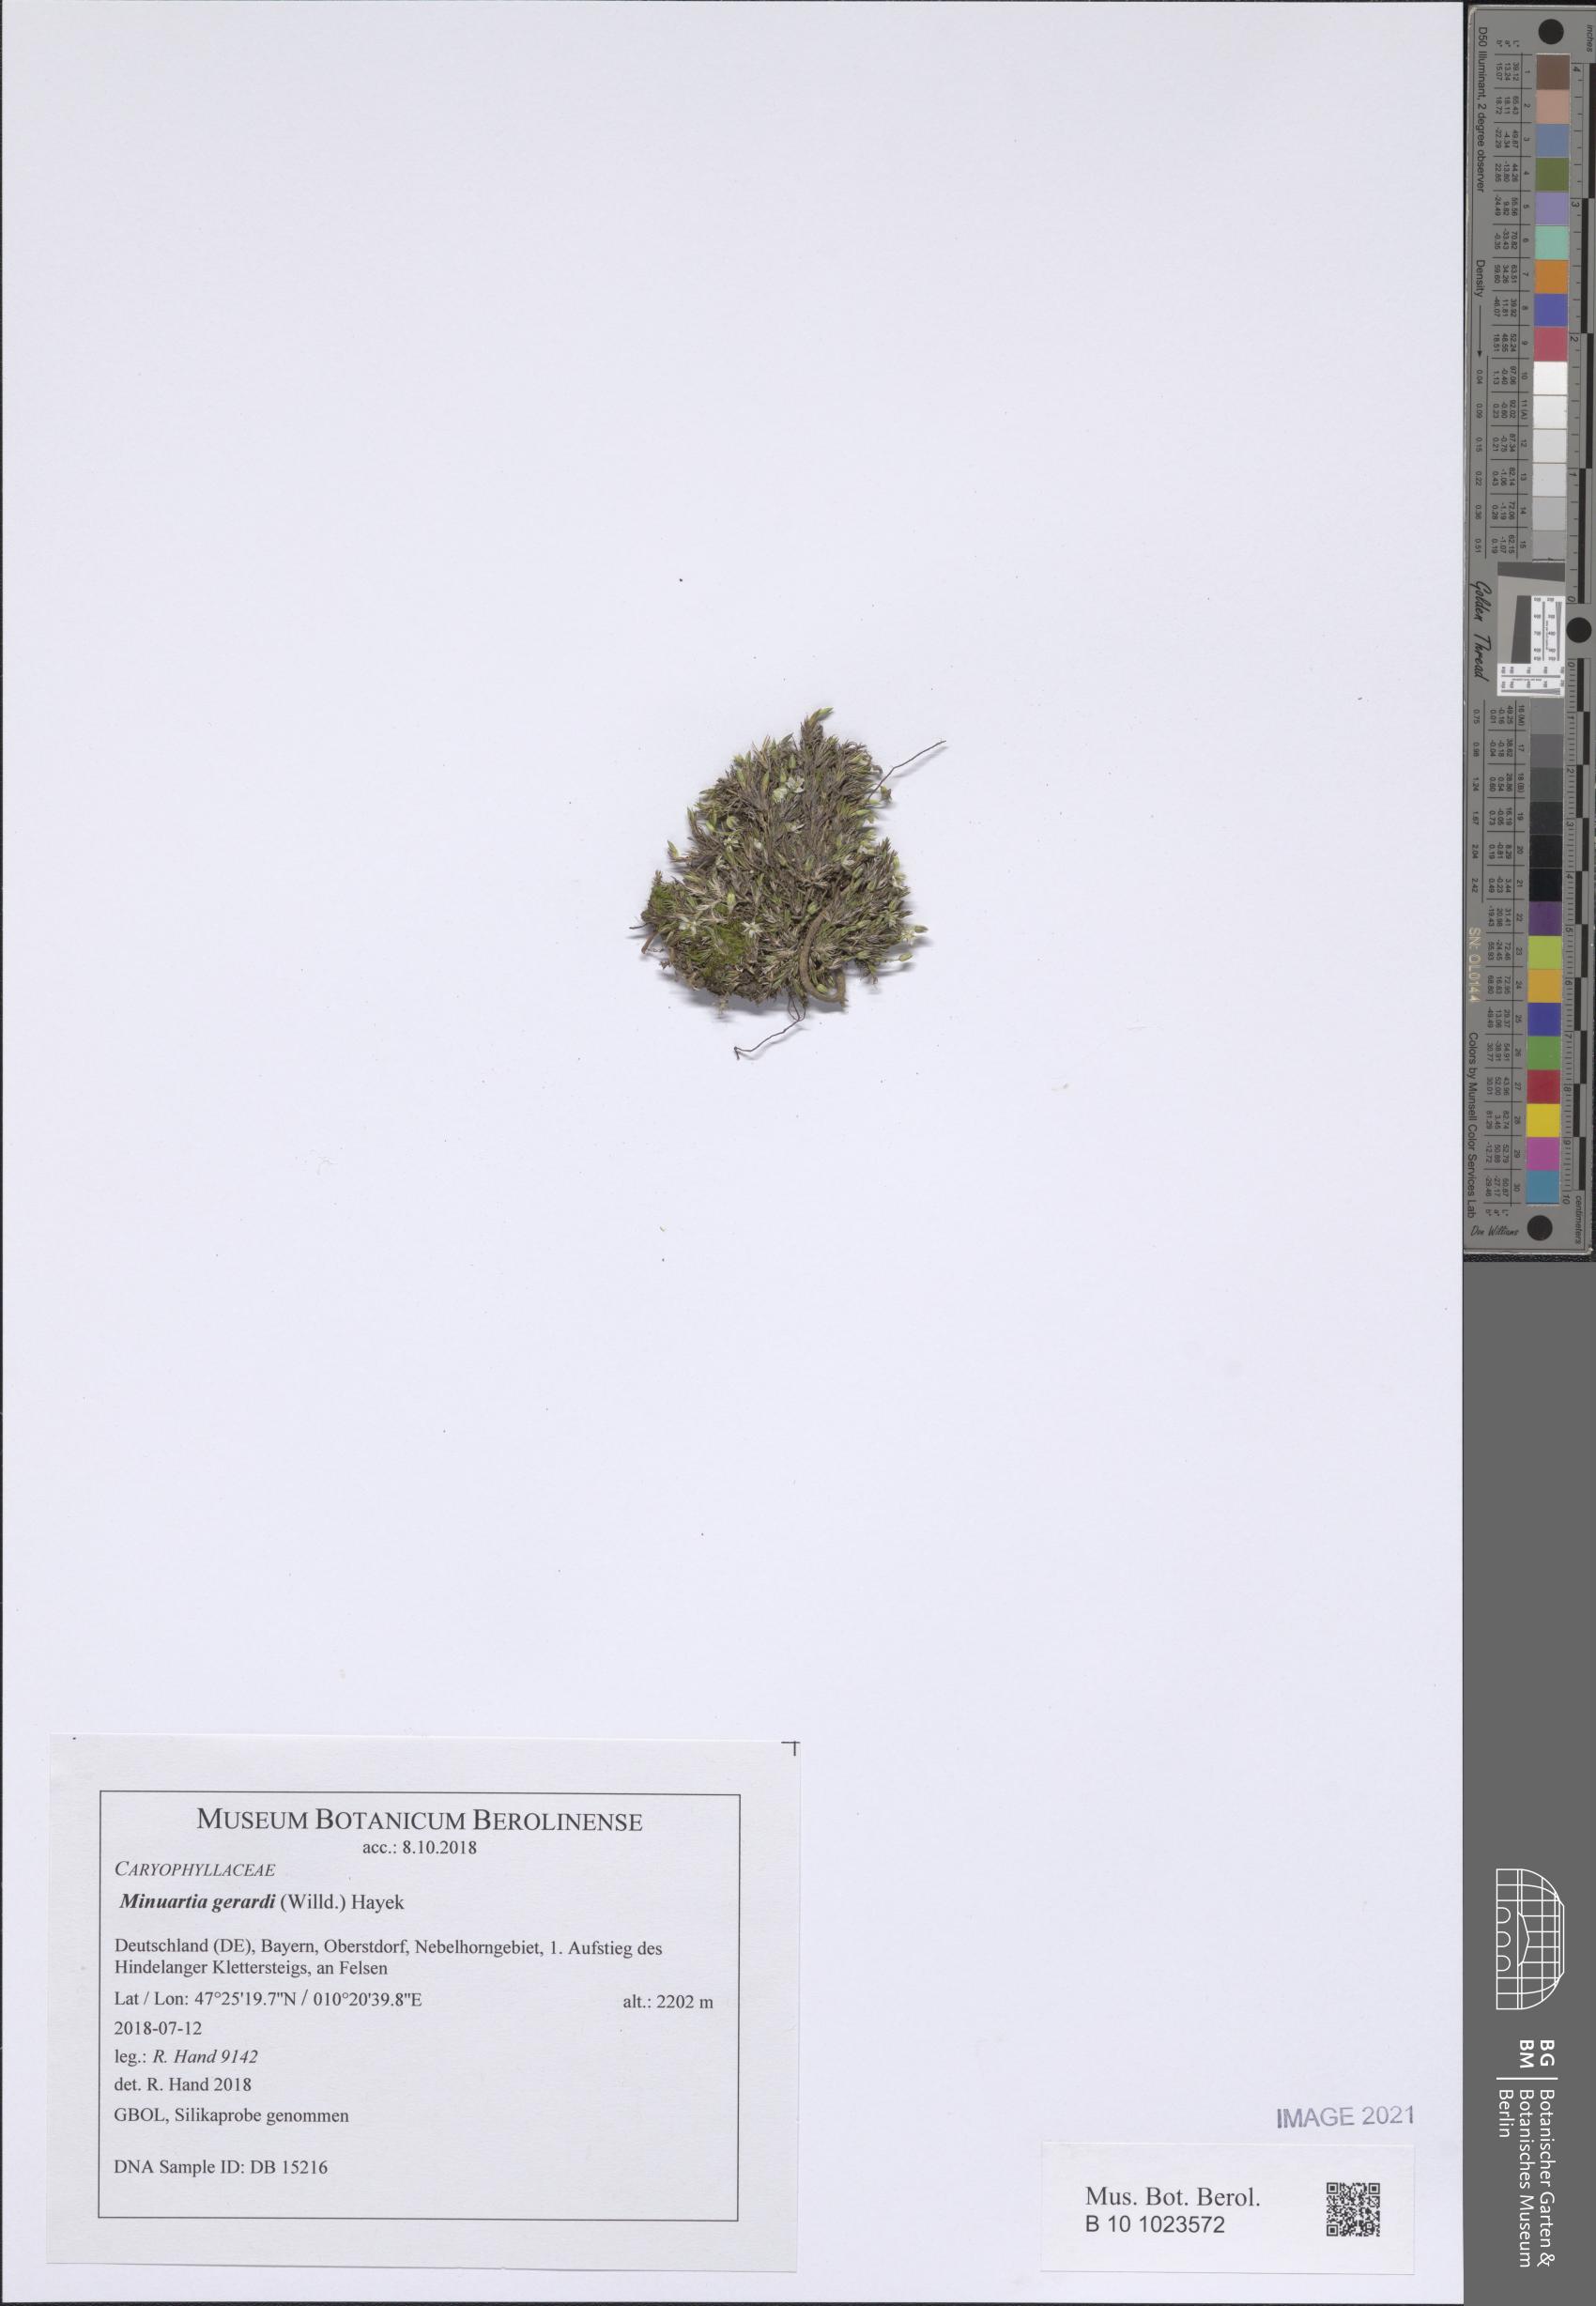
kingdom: Plantae
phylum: Tracheophyta
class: Magnoliopsida
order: Caryophyllales
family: Caryophyllaceae
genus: Sabulina
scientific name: Sabulina verna
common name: Spring sandwort
